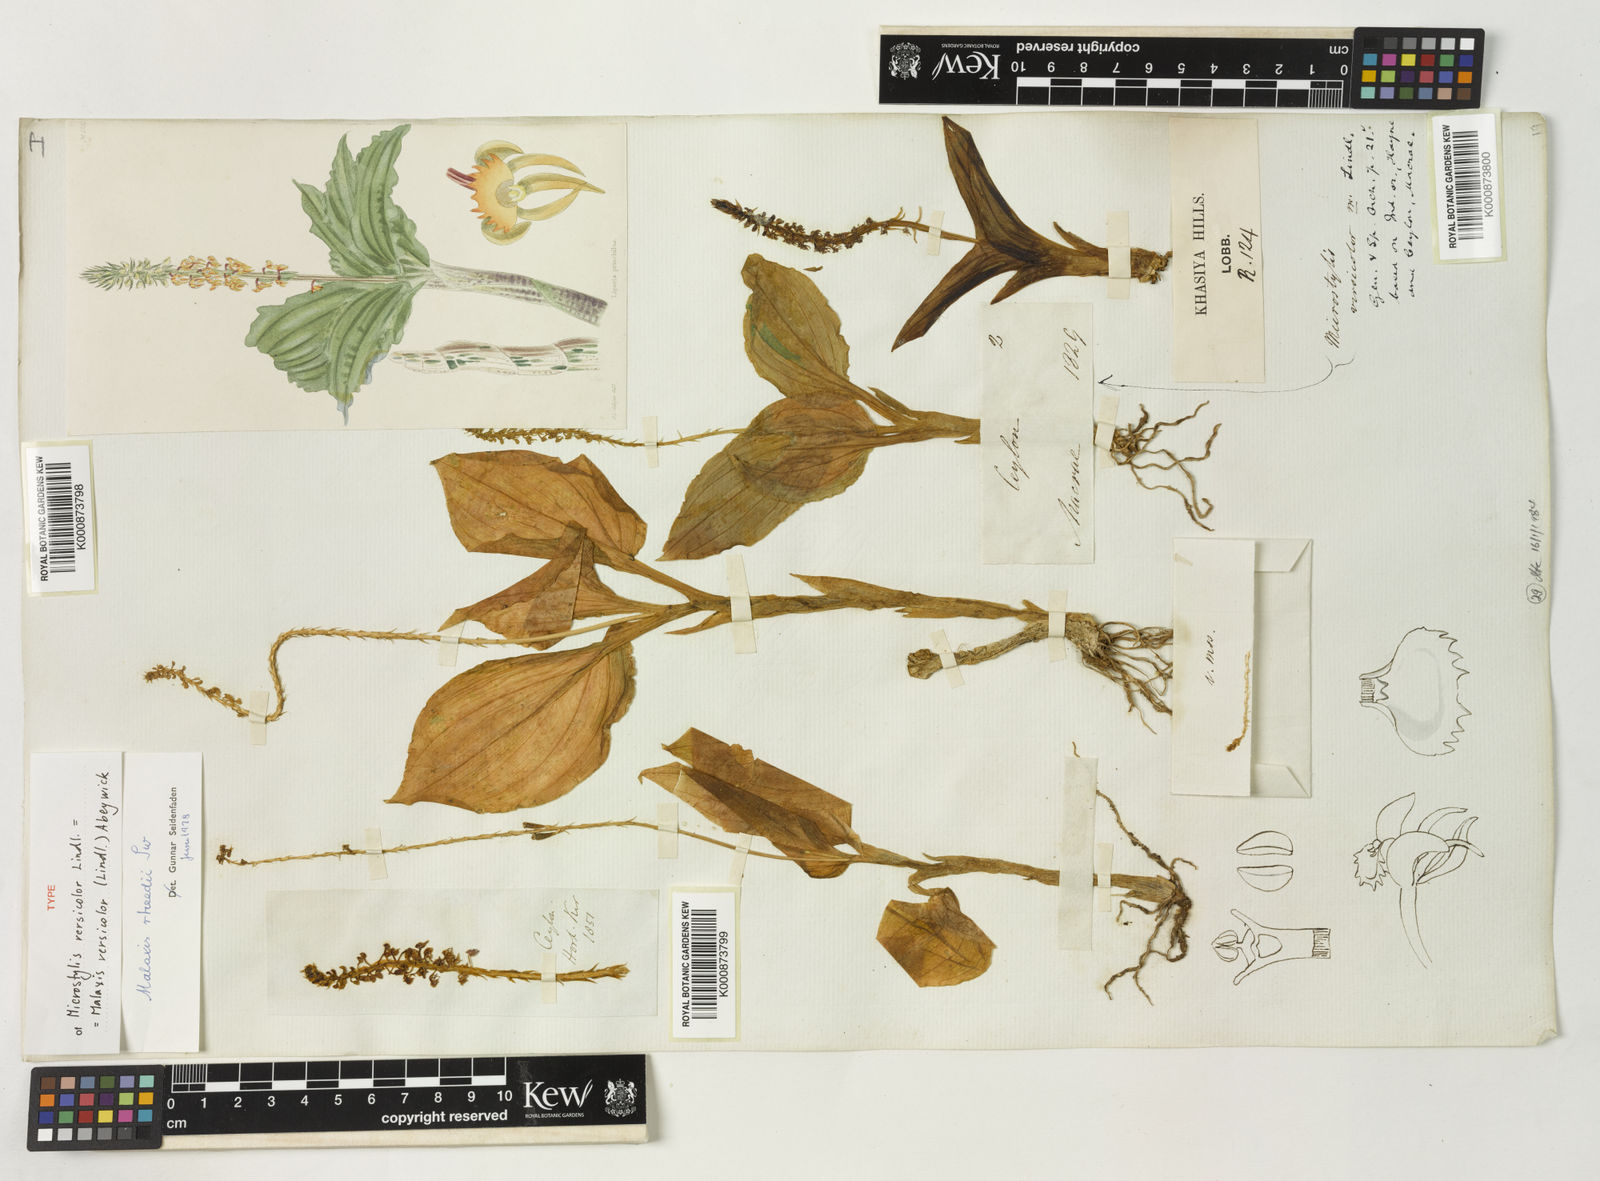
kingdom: Plantae
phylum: Tracheophyta
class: Liliopsida
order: Asparagales
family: Orchidaceae
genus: Crepidium
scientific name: Crepidium versicolor
